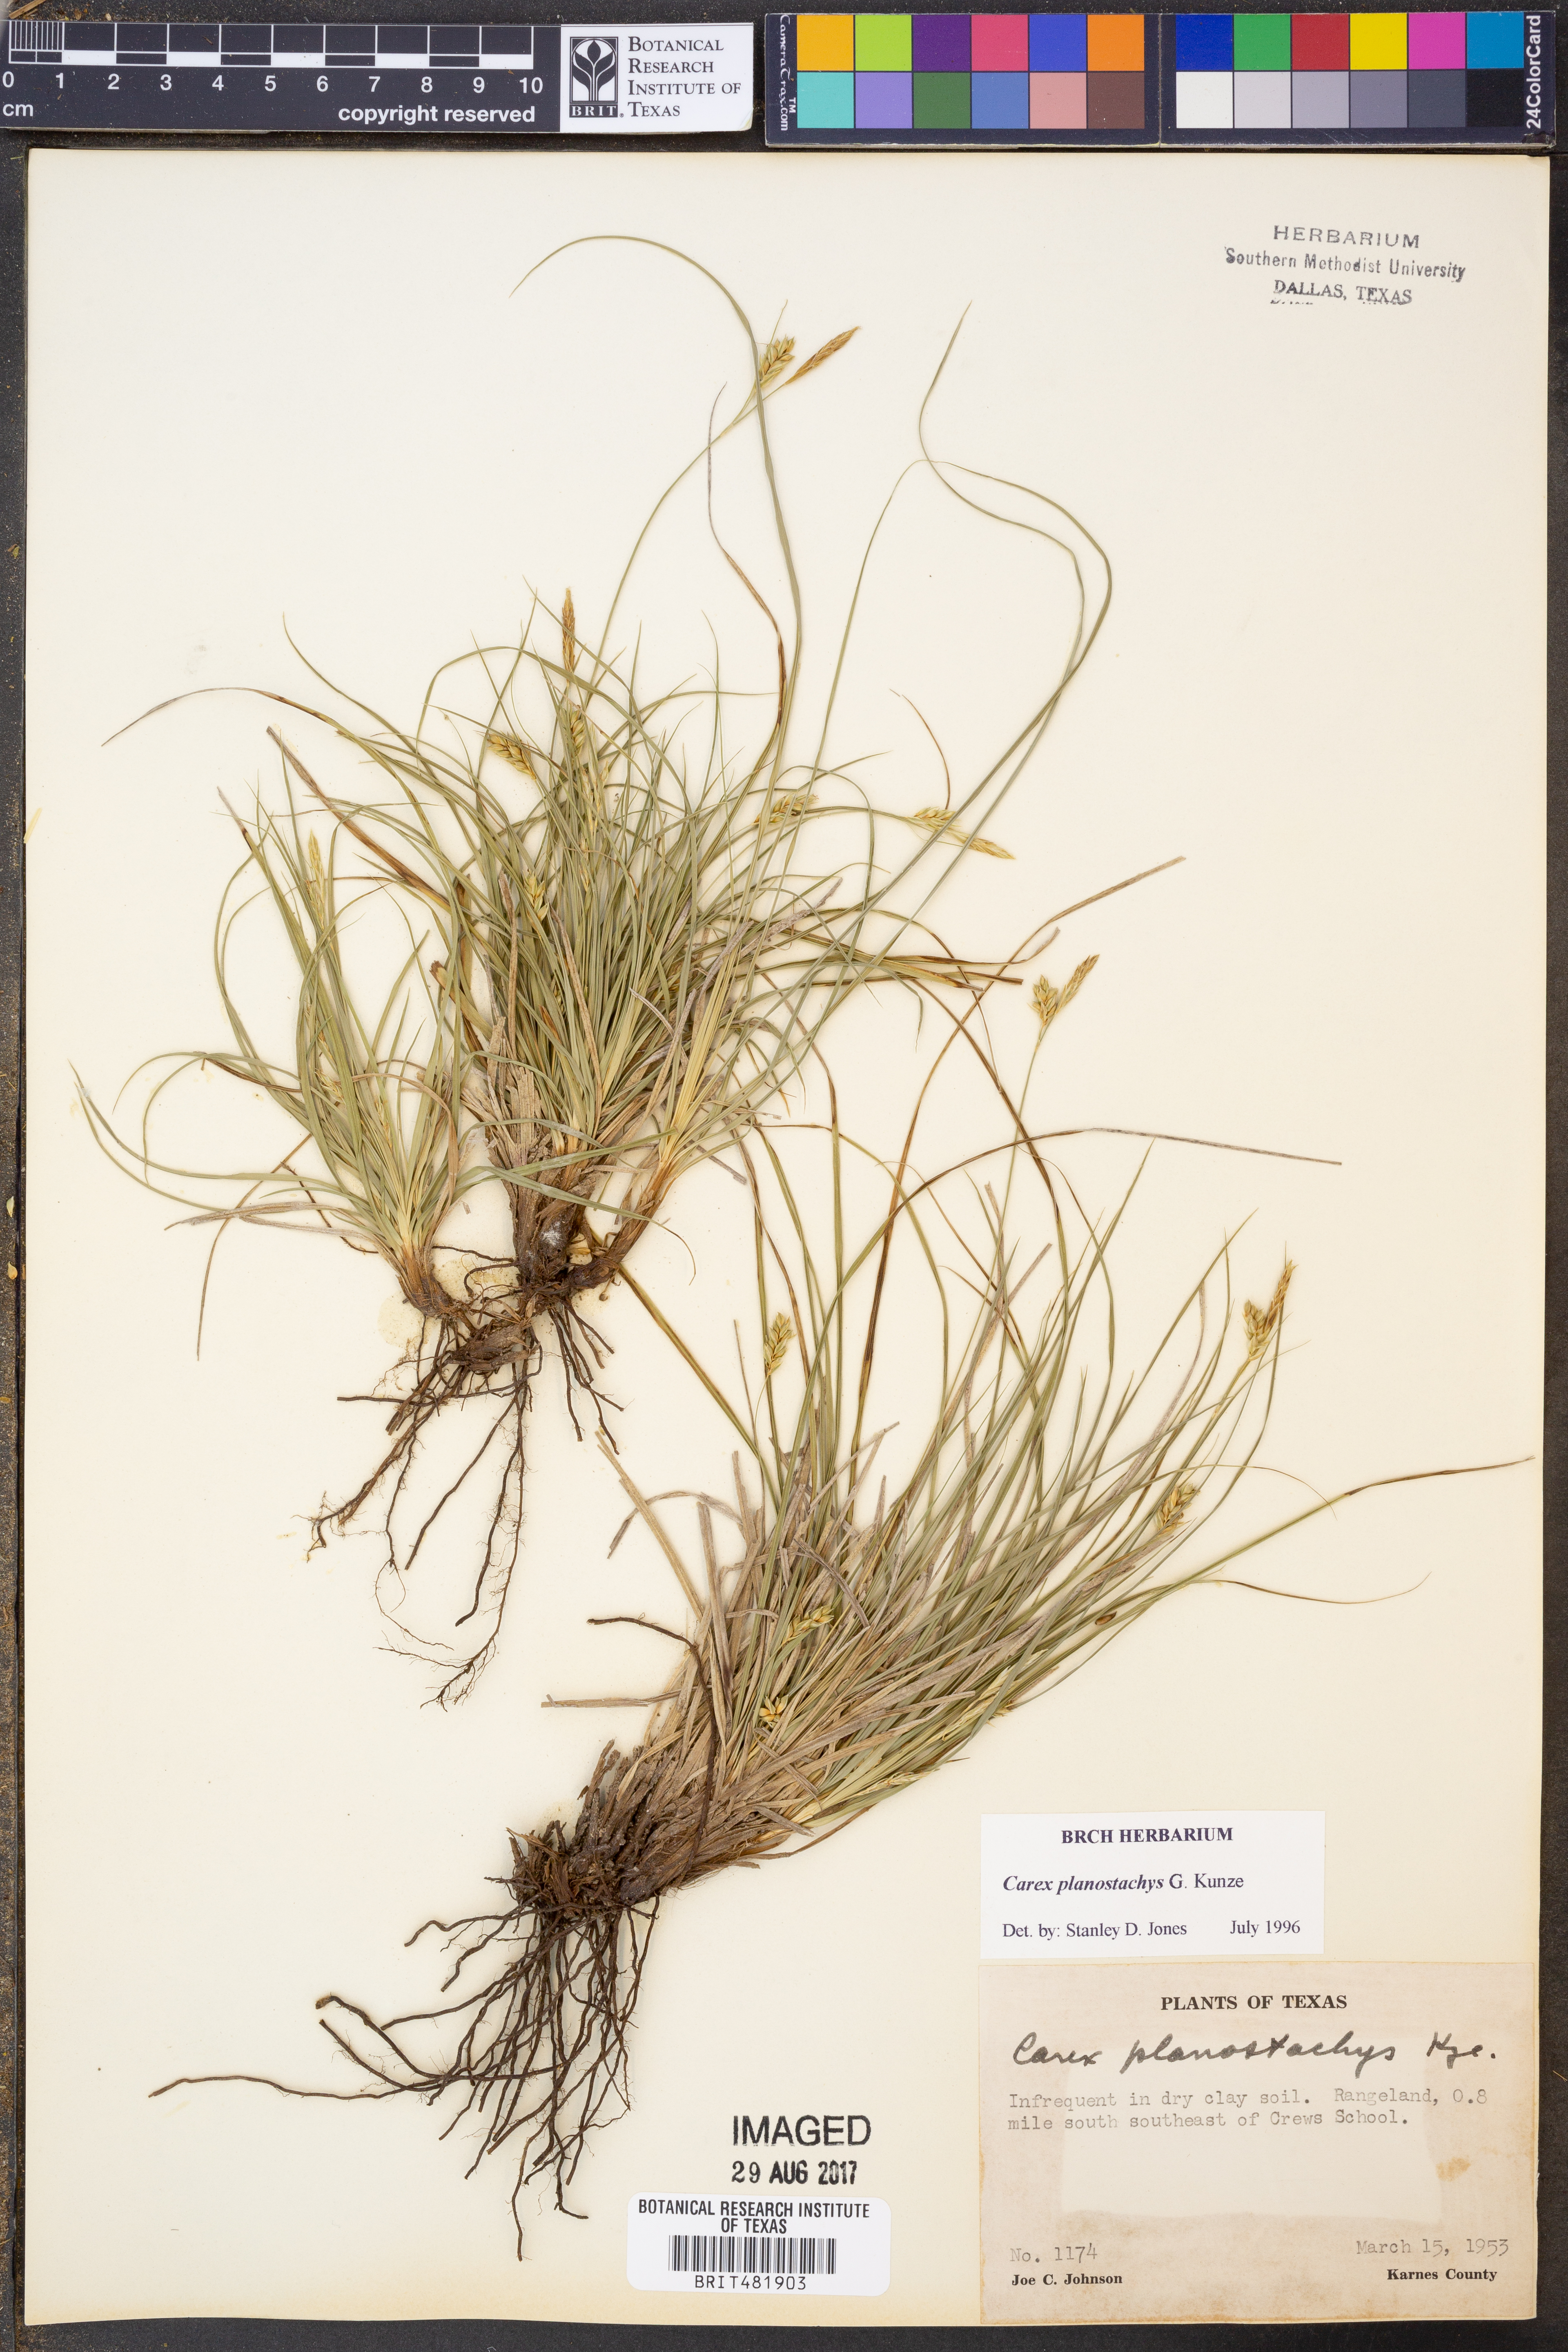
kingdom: Plantae
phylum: Tracheophyta
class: Liliopsida
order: Poales
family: Cyperaceae
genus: Carex
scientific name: Carex planostachys
